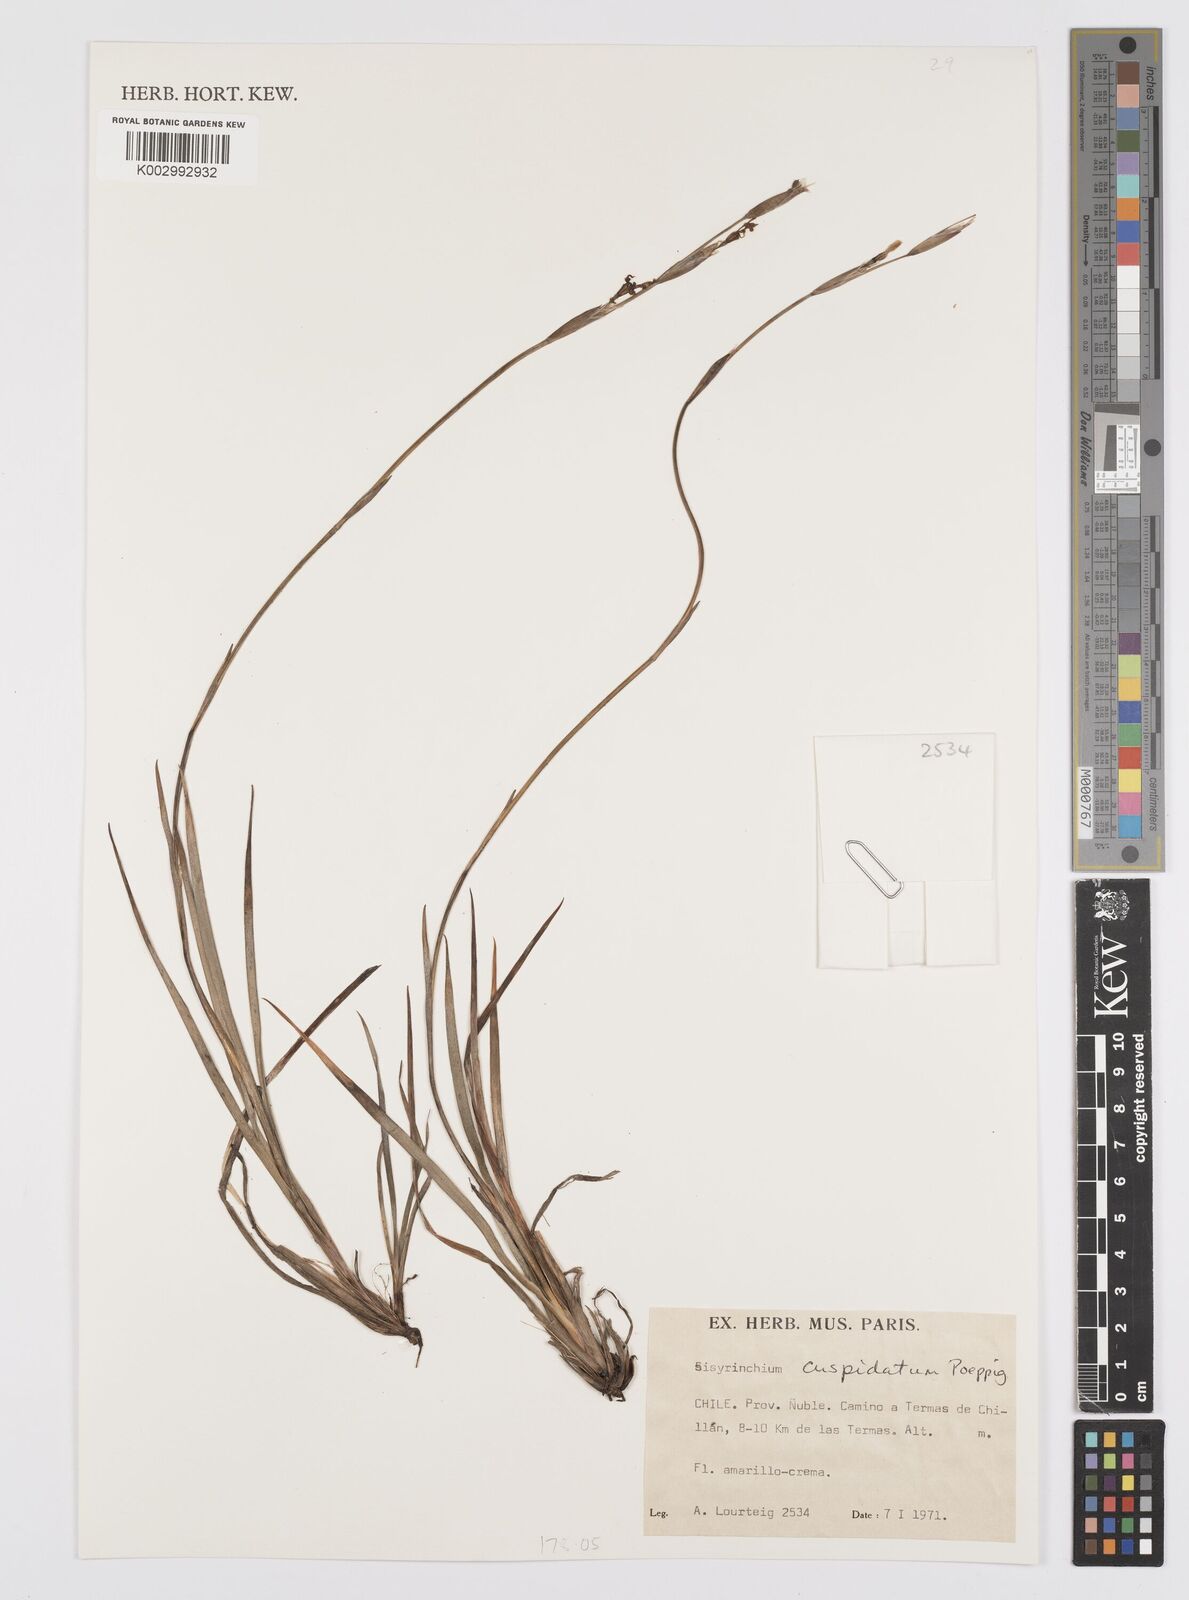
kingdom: Plantae
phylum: Tracheophyta
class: Liliopsida
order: Asparagales
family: Iridaceae
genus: Sisyrinchium
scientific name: Sisyrinchium cuspidatum
